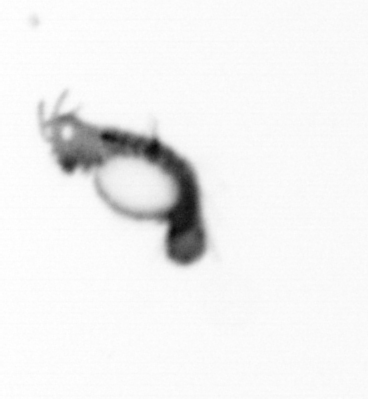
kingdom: Animalia
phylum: Annelida
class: Polychaeta
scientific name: Polychaeta
